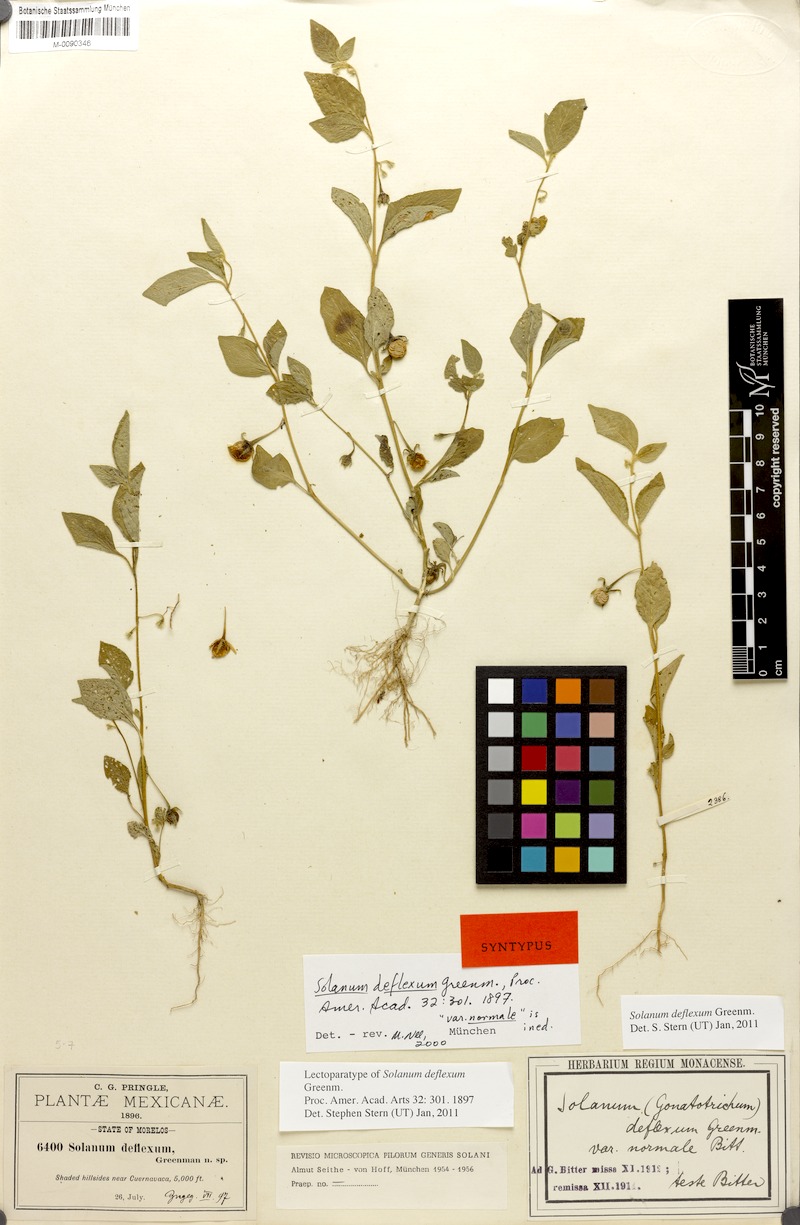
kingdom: Plantae
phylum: Tracheophyta
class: Magnoliopsida
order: Solanales
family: Solanaceae
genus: Solanum
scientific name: Solanum deflexum
